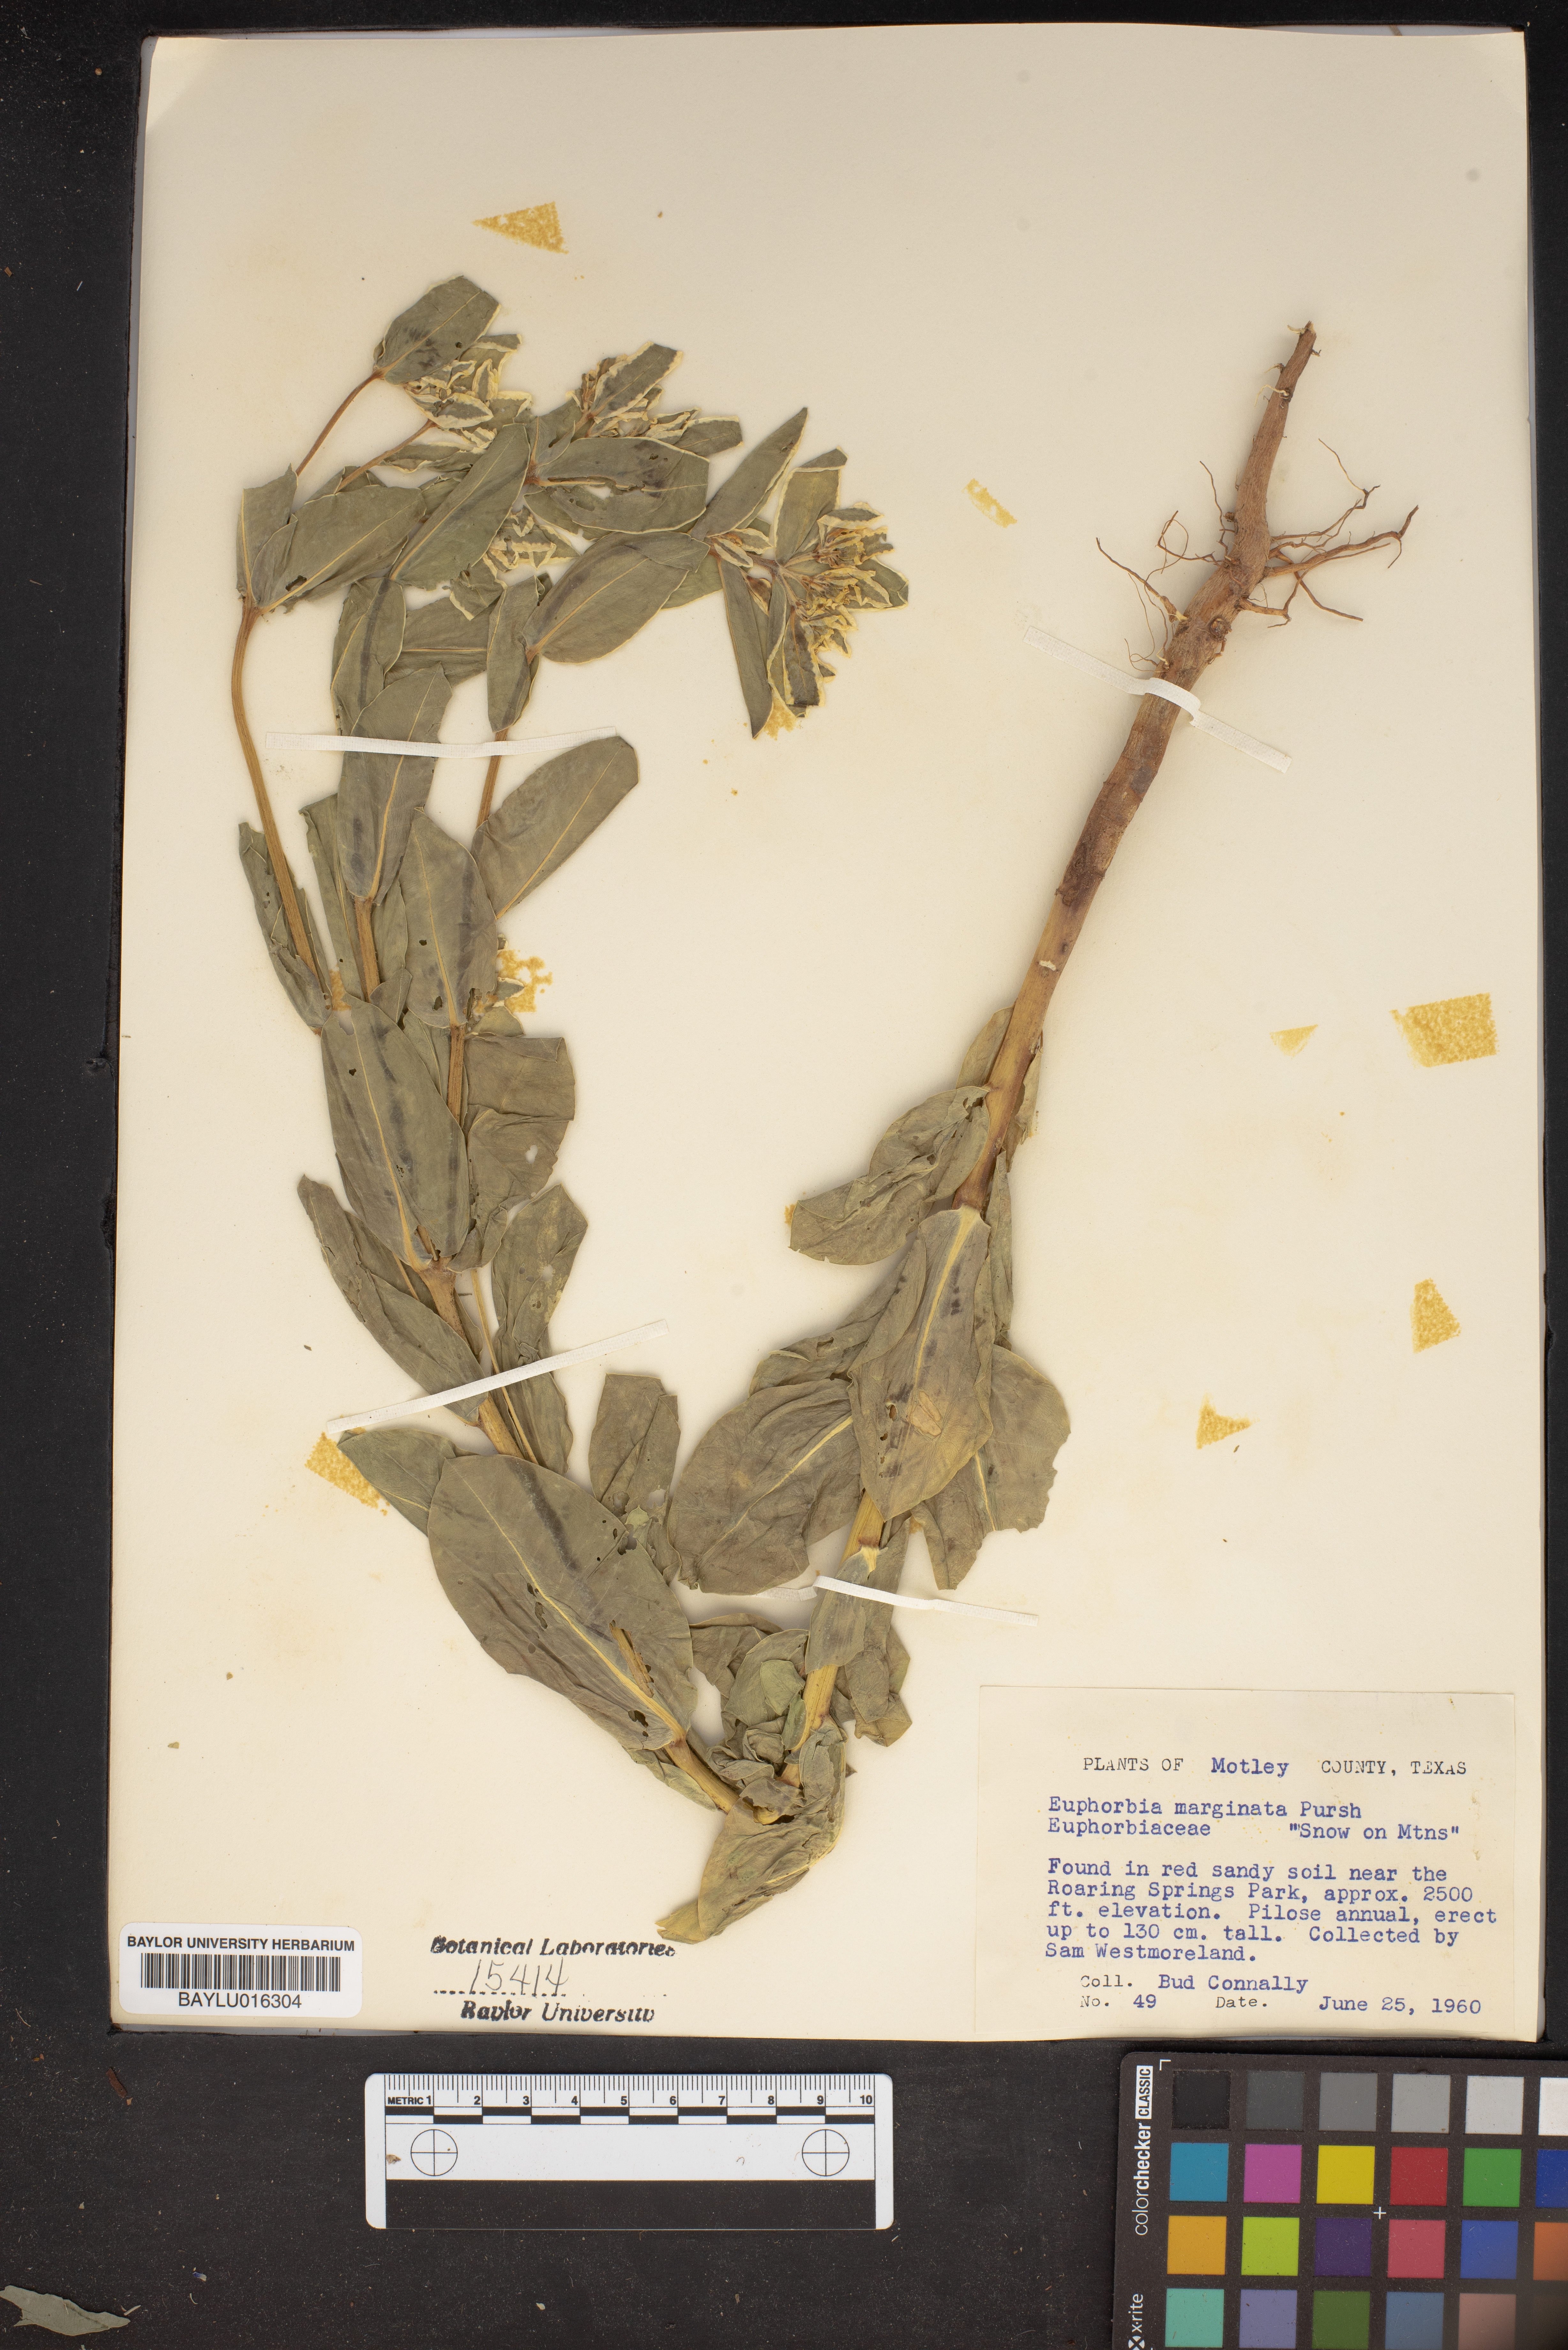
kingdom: Plantae
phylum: Tracheophyta
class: Magnoliopsida
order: Malpighiales
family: Euphorbiaceae
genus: Euphorbia
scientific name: Euphorbia marginata
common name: Ghostweed
